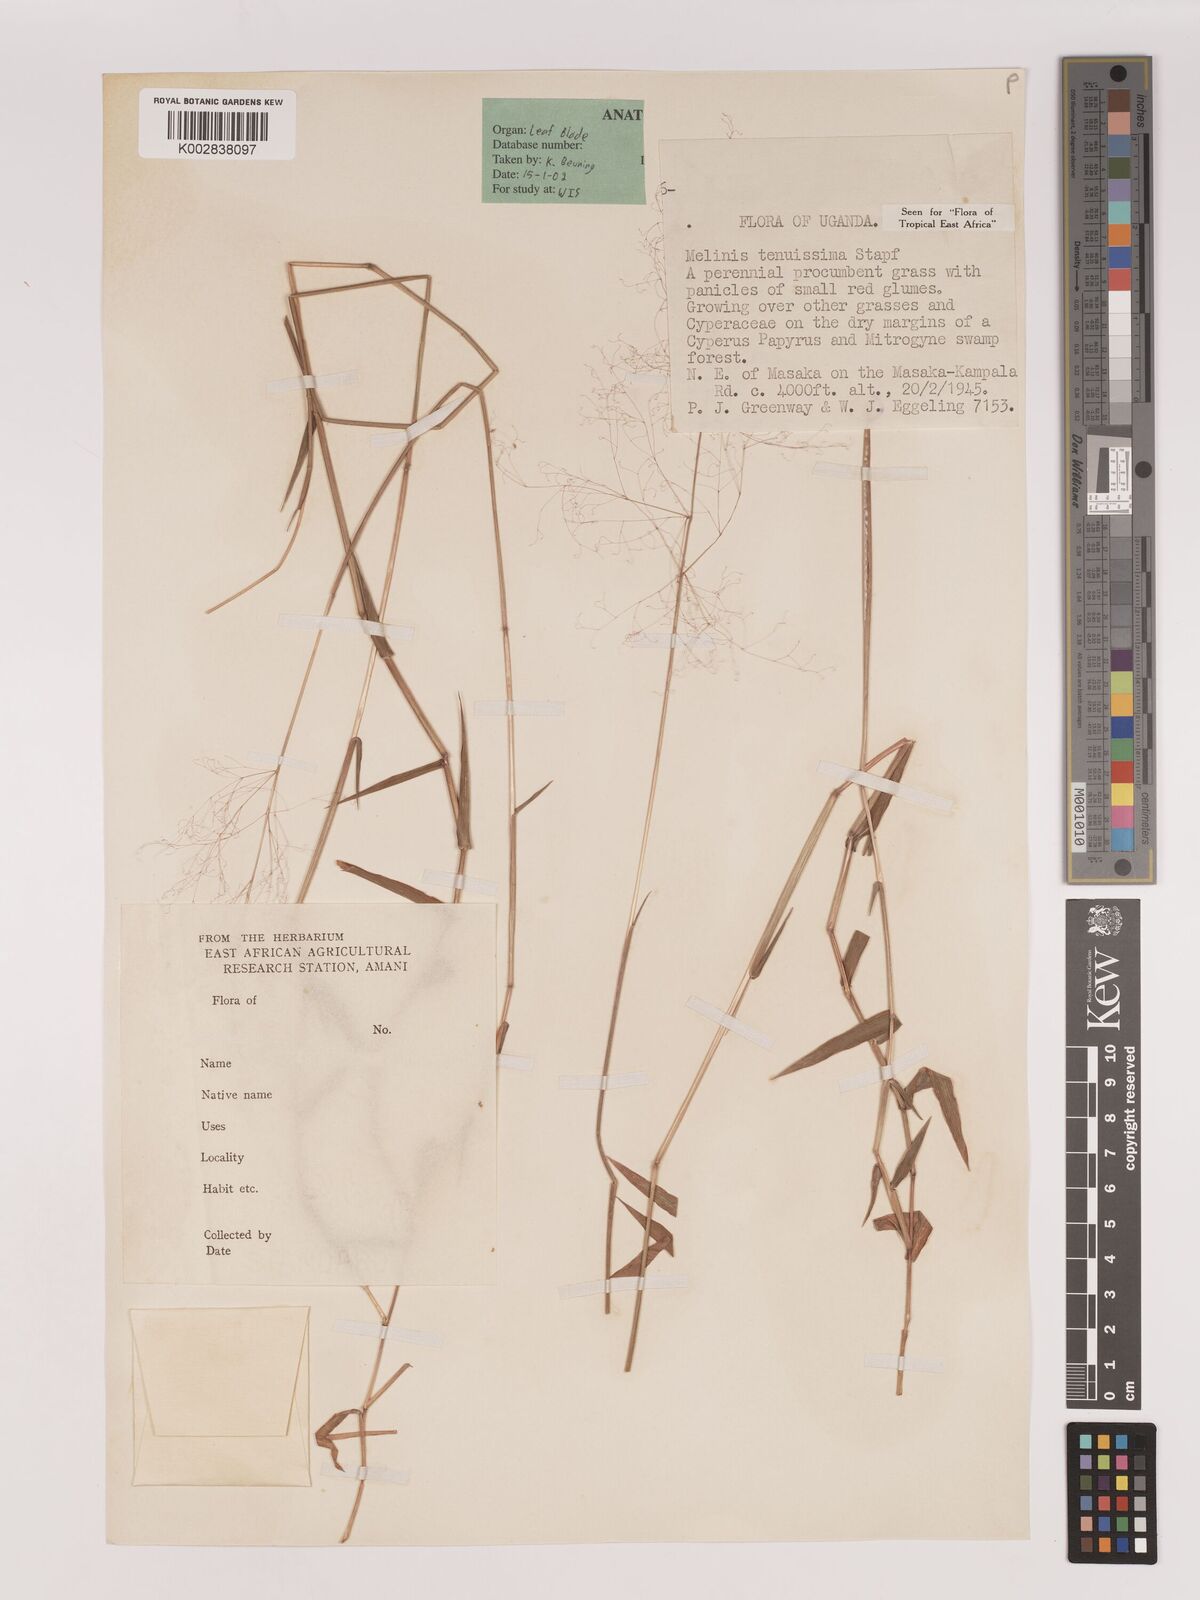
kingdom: Plantae
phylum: Tracheophyta
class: Liliopsida
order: Poales
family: Poaceae
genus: Melinis
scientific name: Melinis tenuissima
